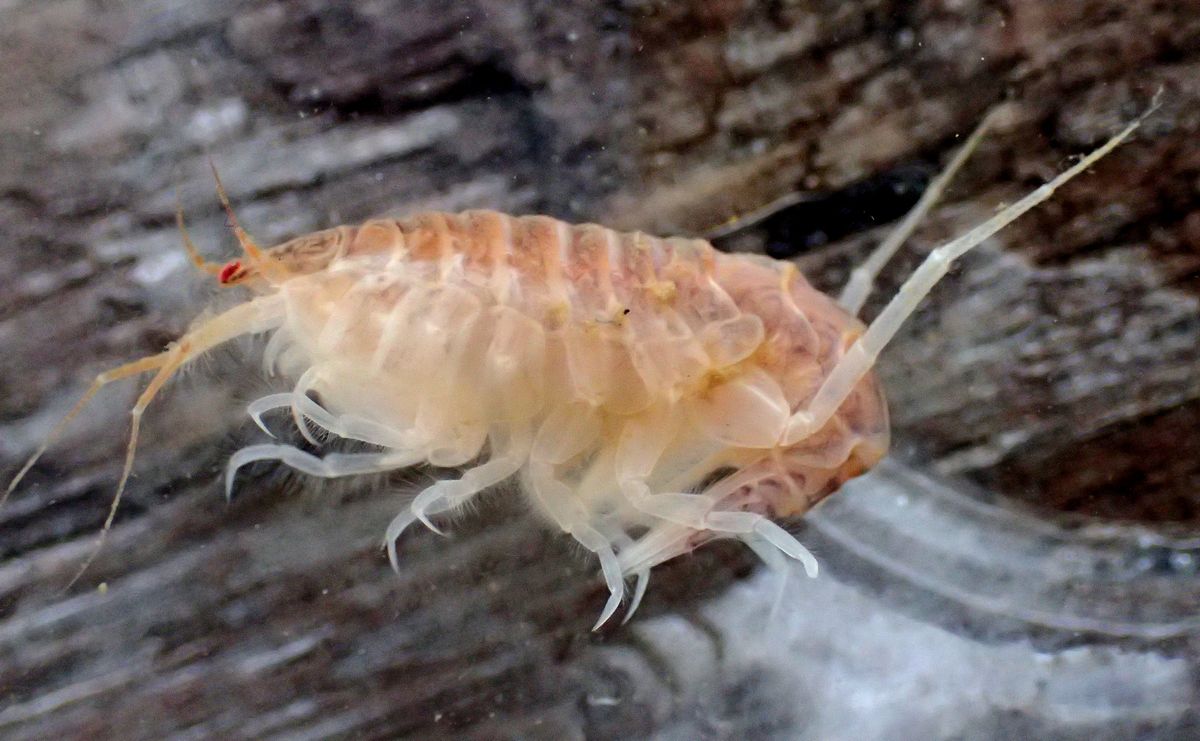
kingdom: Animalia
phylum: Arthropoda
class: Malacostraca
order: Amphipoda
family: Oedicerotidae
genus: Paroediceros
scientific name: Paroediceros lynceus
